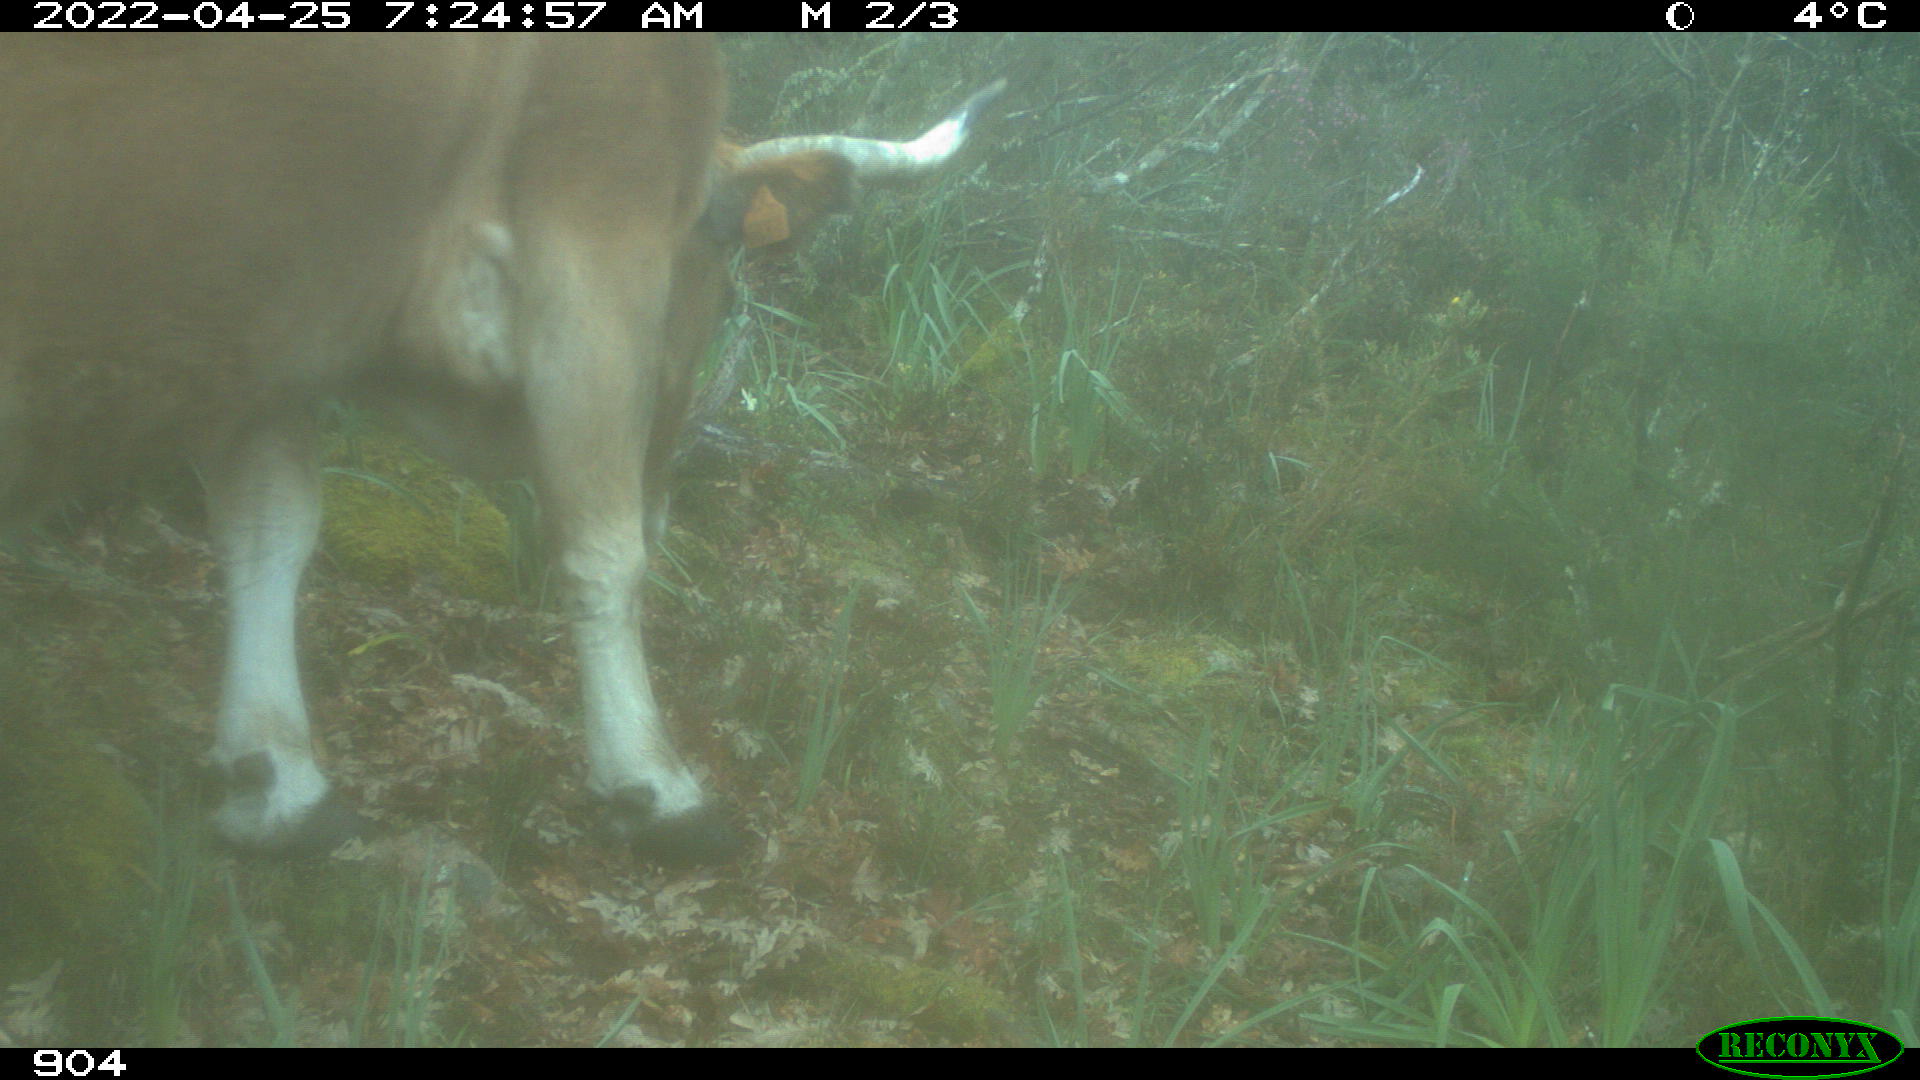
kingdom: Animalia
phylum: Chordata
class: Mammalia
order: Artiodactyla
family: Bovidae
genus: Bos
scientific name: Bos taurus
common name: Domesticated cattle
